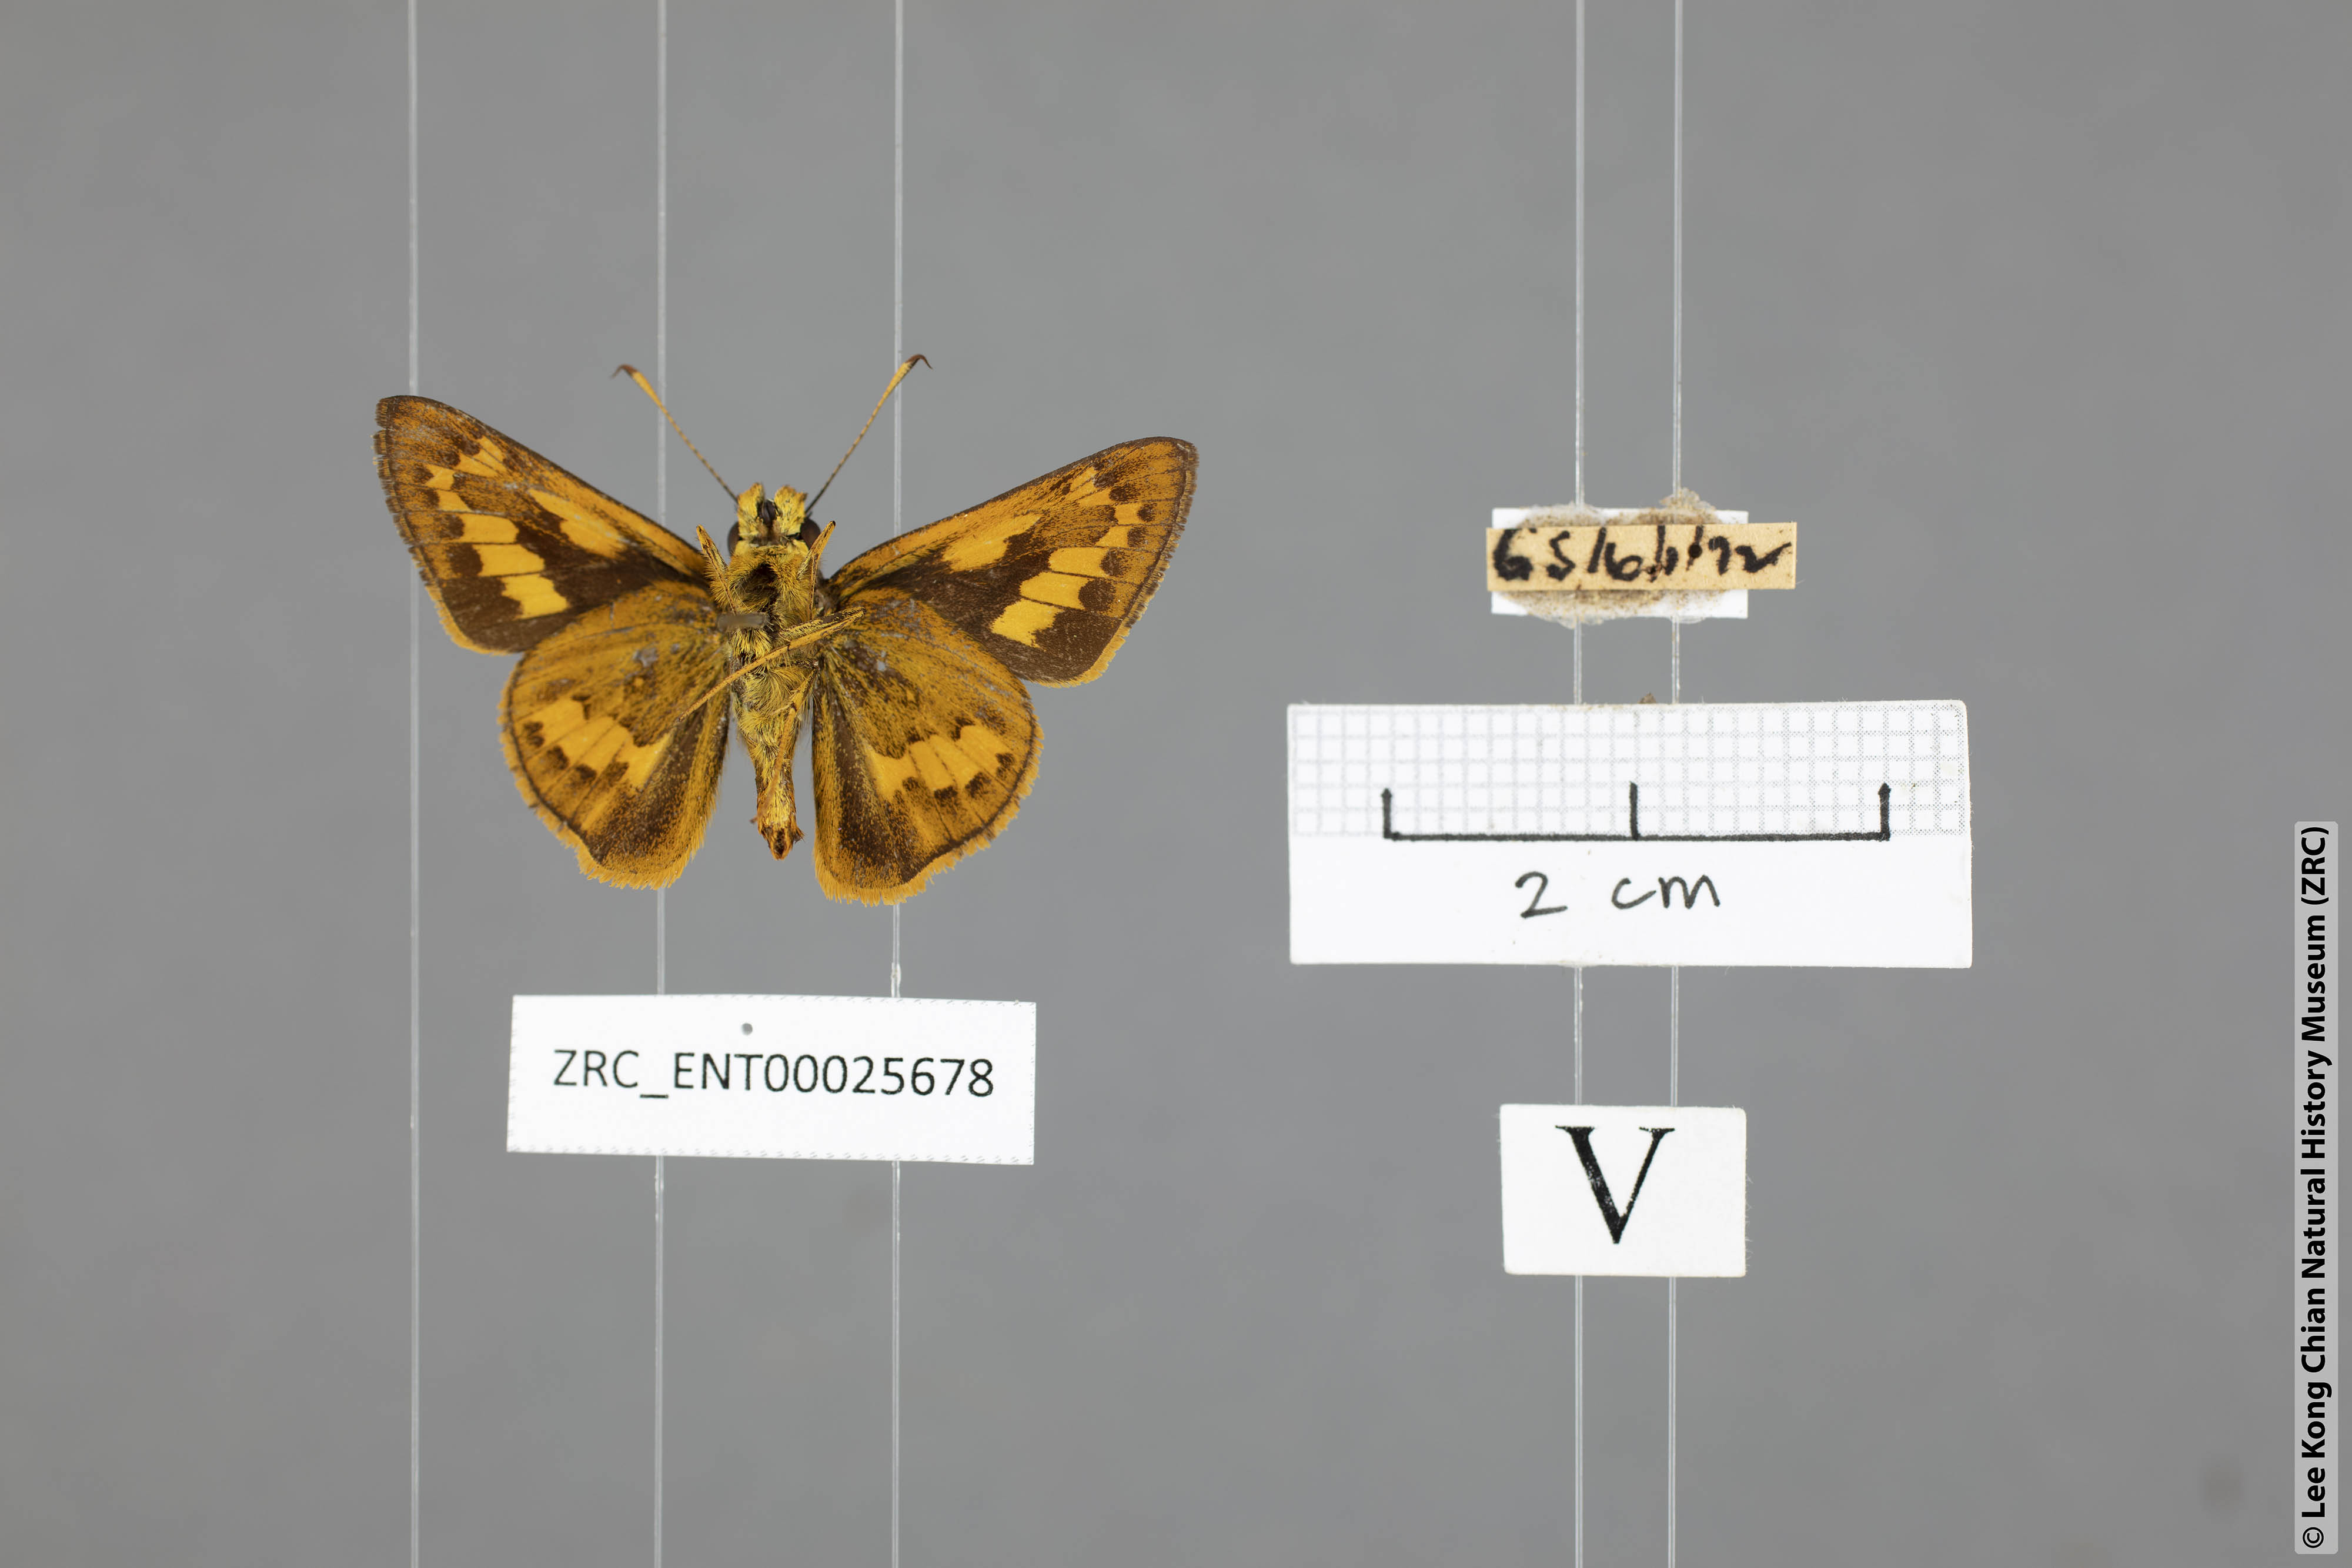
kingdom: Animalia
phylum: Arthropoda
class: Insecta
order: Lepidoptera
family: Hesperiidae
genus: Telicota
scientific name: Telicota ohara
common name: Dark palm dart
